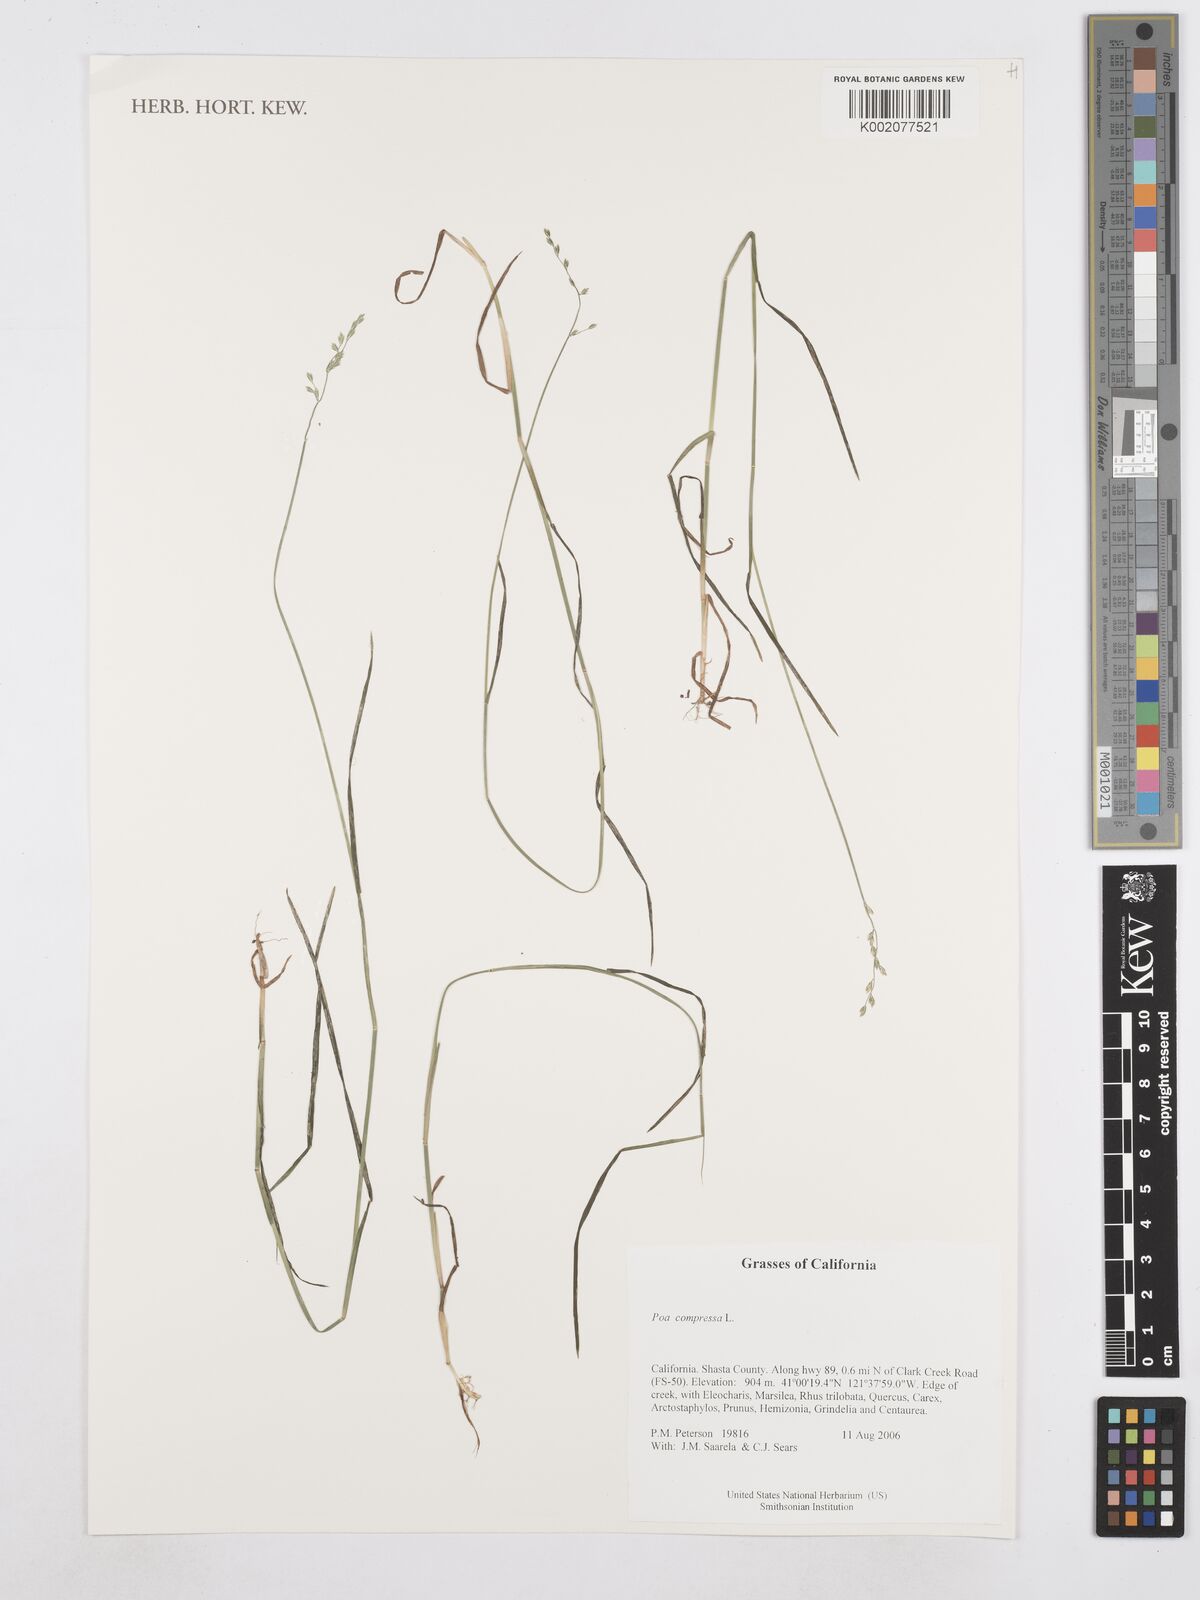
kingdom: Plantae
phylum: Tracheophyta
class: Liliopsida
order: Poales
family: Poaceae
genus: Poa
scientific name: Poa compressa
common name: Canada bluegrass
